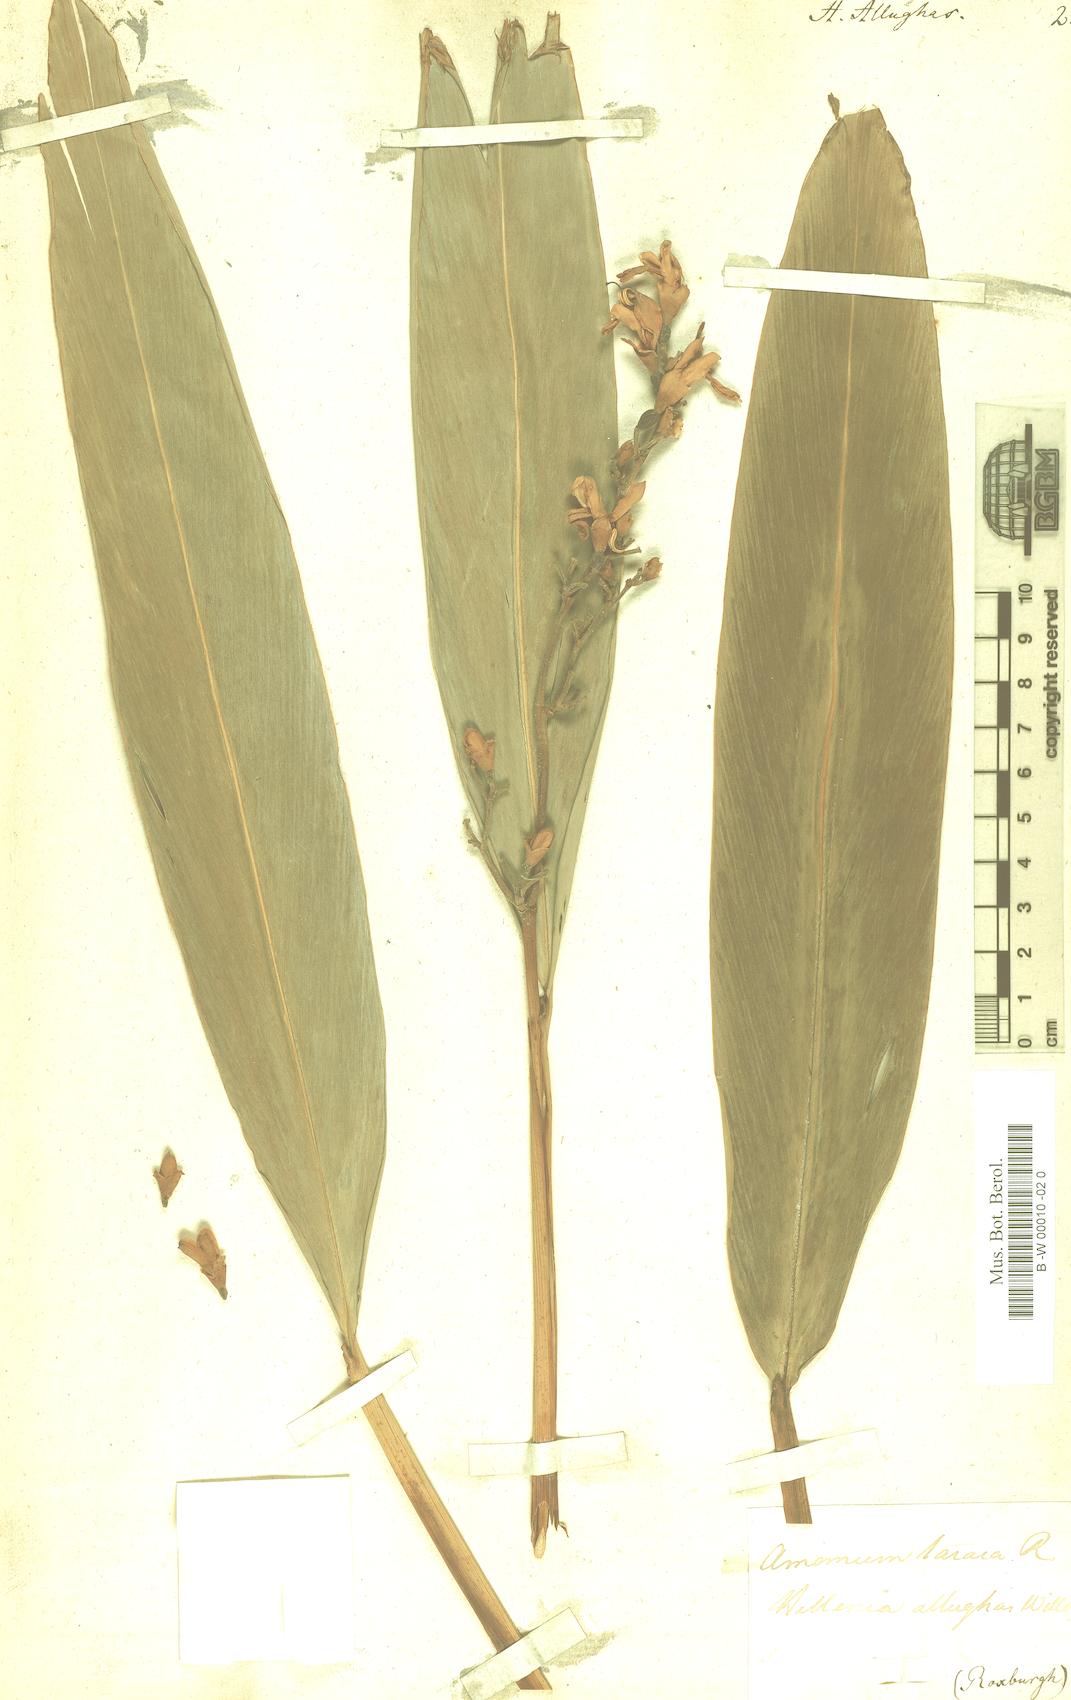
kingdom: Plantae
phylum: Tracheophyta
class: Liliopsida
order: Zingiberales
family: Zingiberaceae
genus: Alpinia
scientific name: Alpinia nigra
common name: Black fruited galanga
